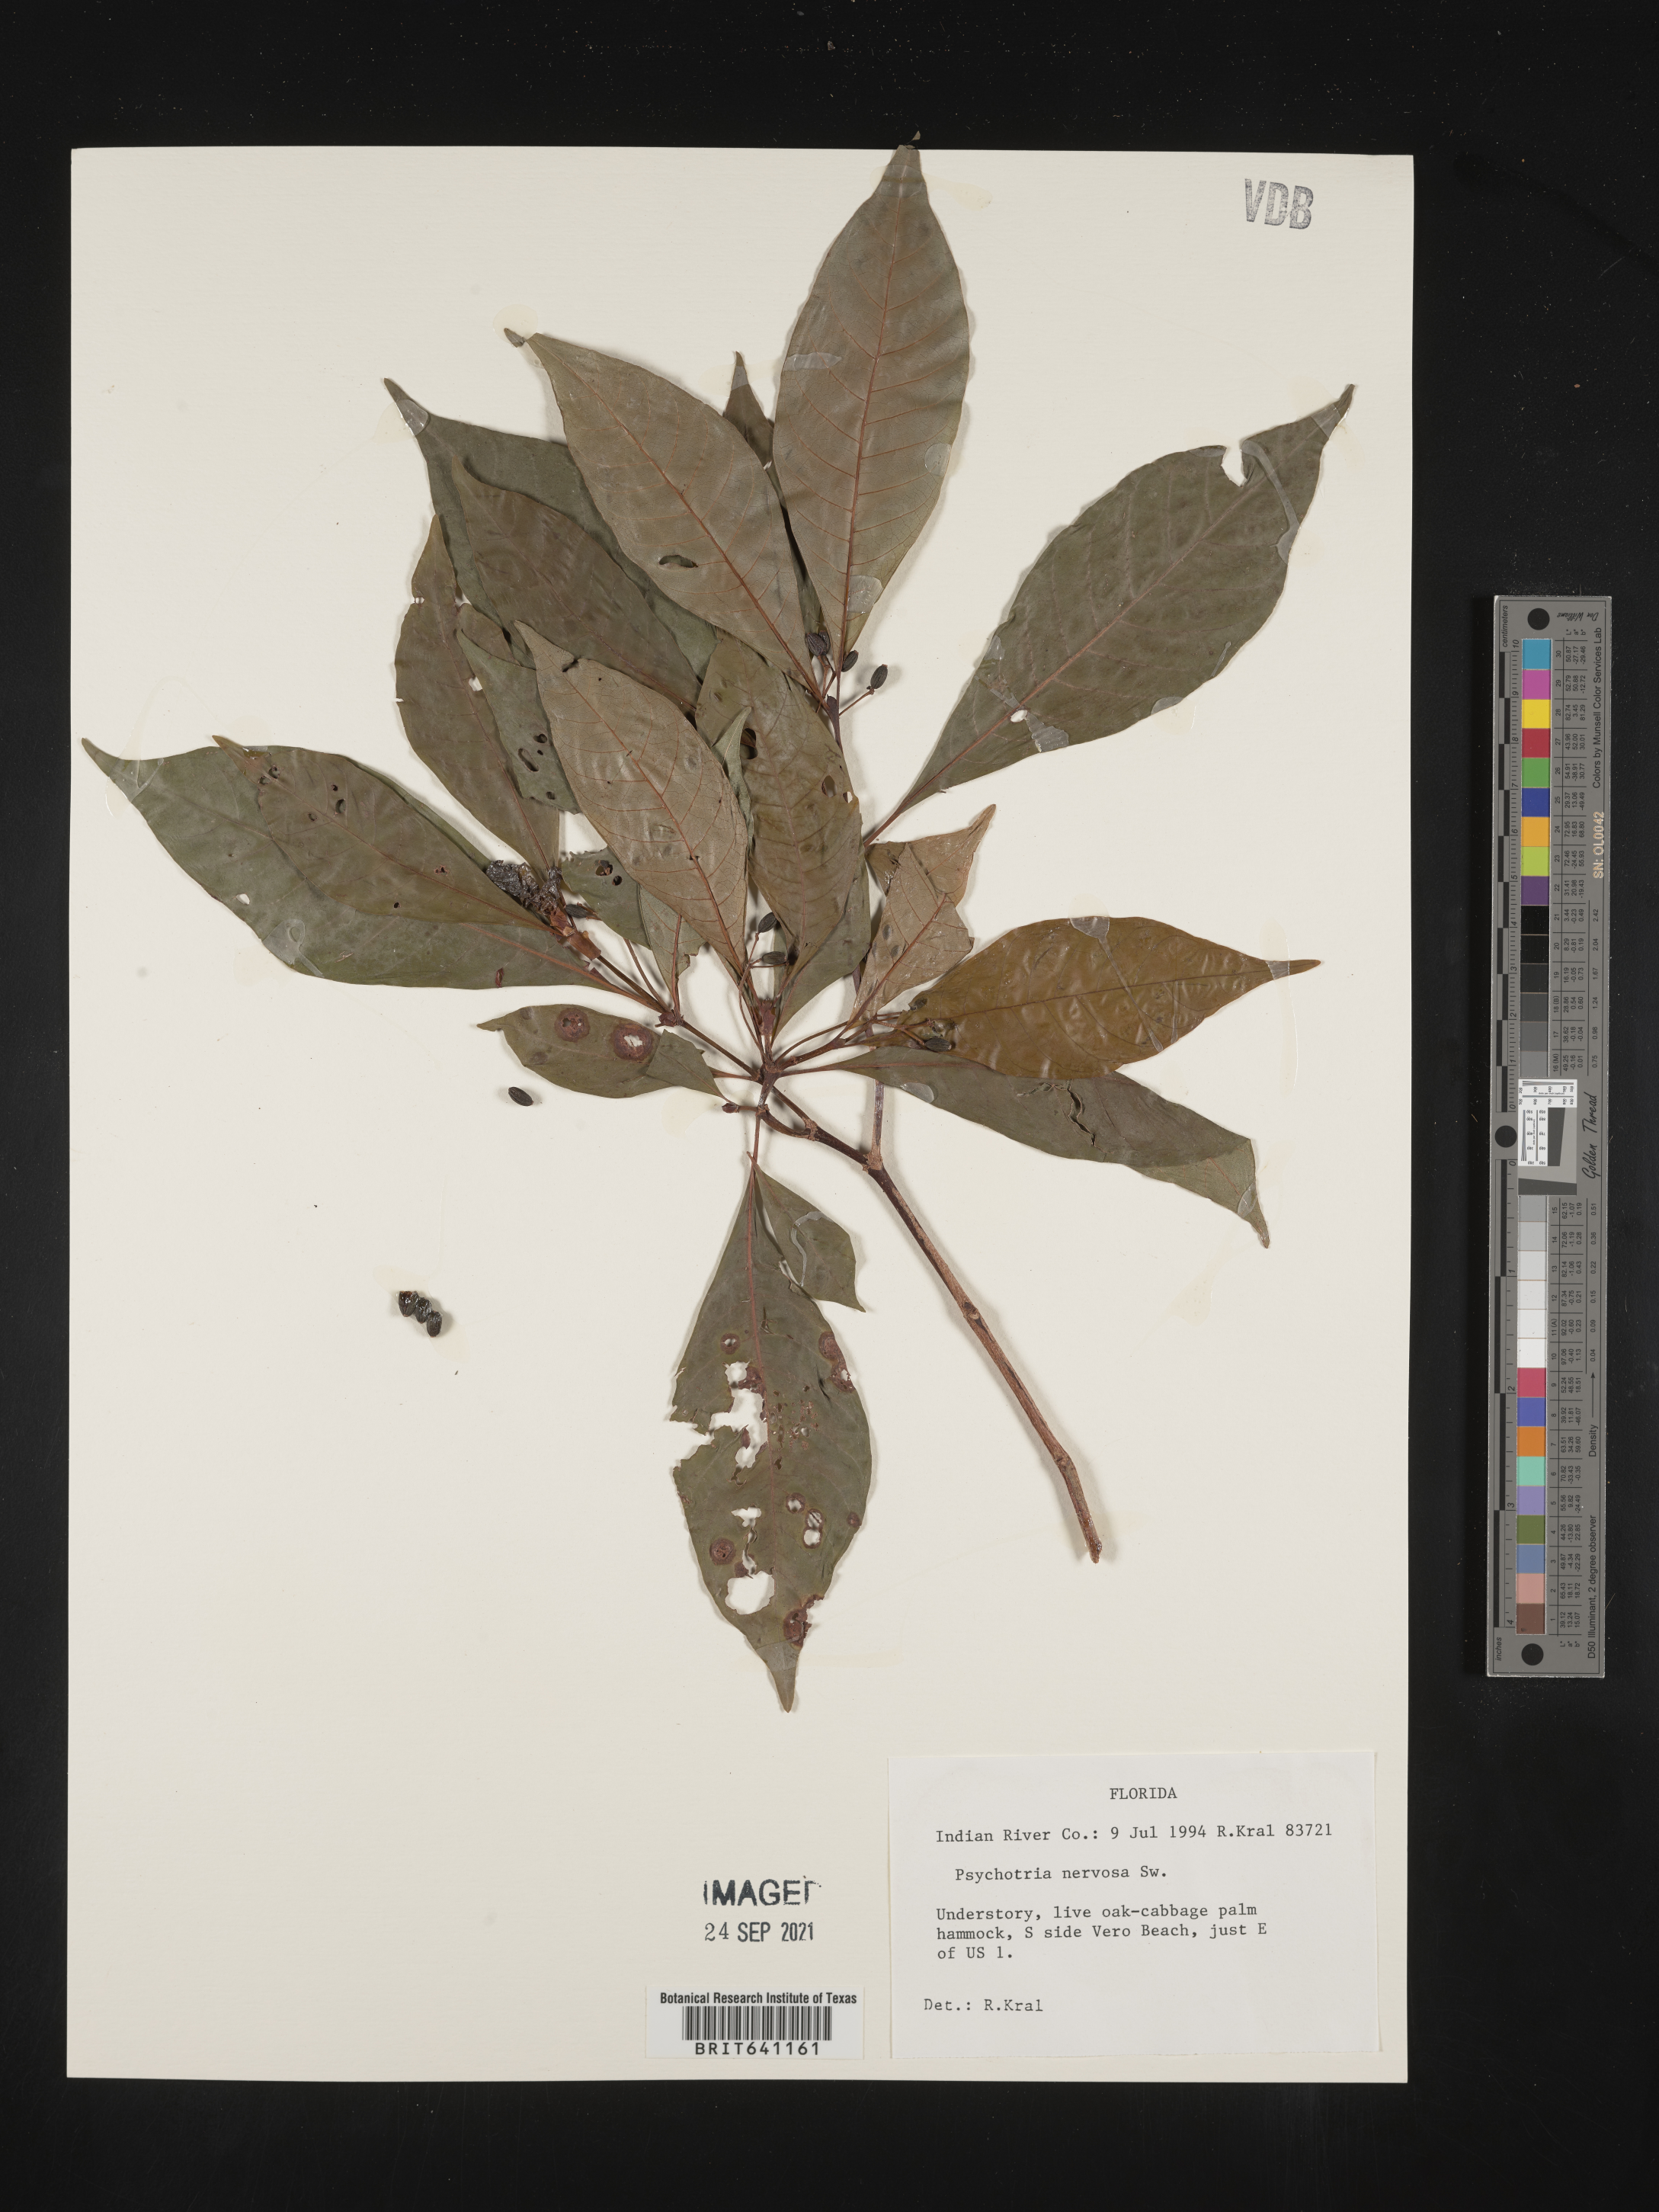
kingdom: Plantae
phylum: Tracheophyta
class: Magnoliopsida
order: Gentianales
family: Rubiaceae
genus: Psychotria
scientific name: Psychotria nervosa
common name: Bastard cankerberry
